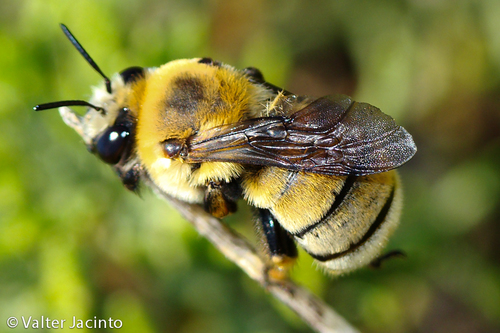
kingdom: Animalia
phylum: Arthropoda
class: Insecta
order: Hymenoptera
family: Apidae
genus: Anthophora
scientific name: Anthophora quadricolor
